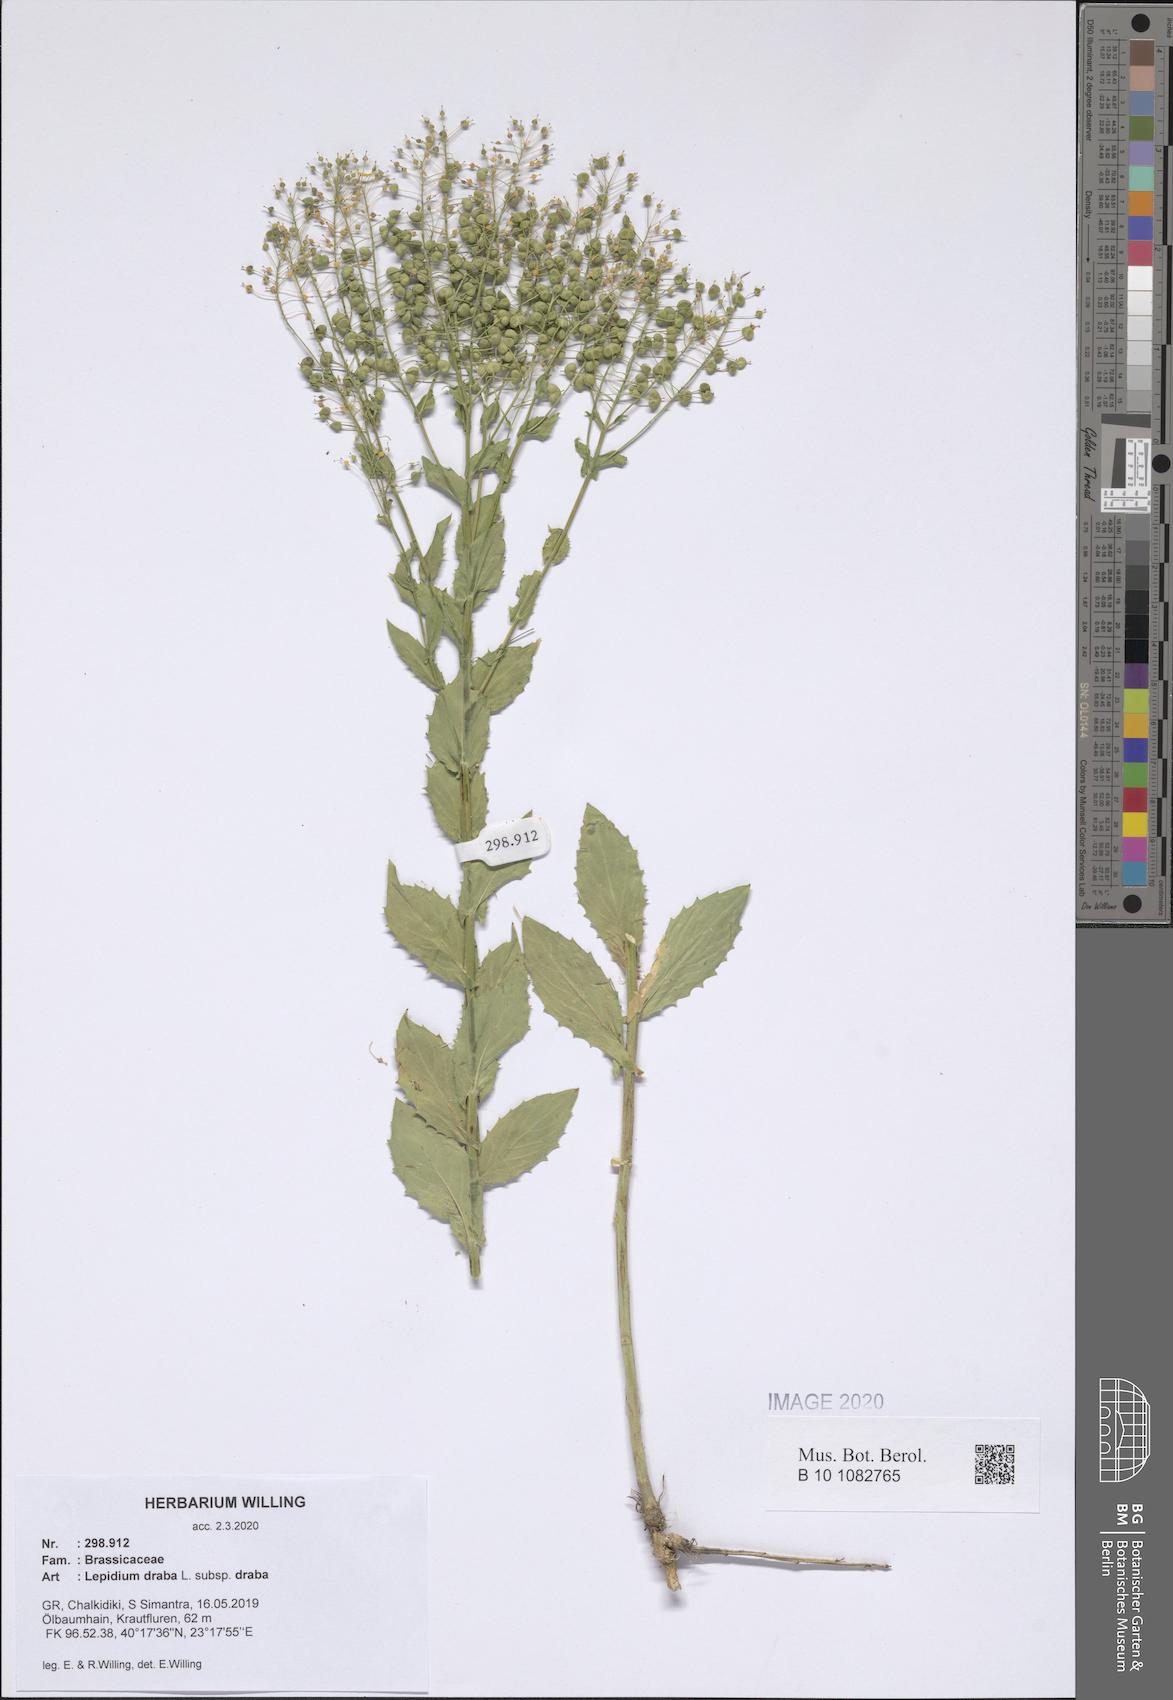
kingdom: Plantae
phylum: Tracheophyta
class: Magnoliopsida
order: Brassicales
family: Brassicaceae
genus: Lepidium
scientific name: Lepidium draba
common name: Hoary cress
